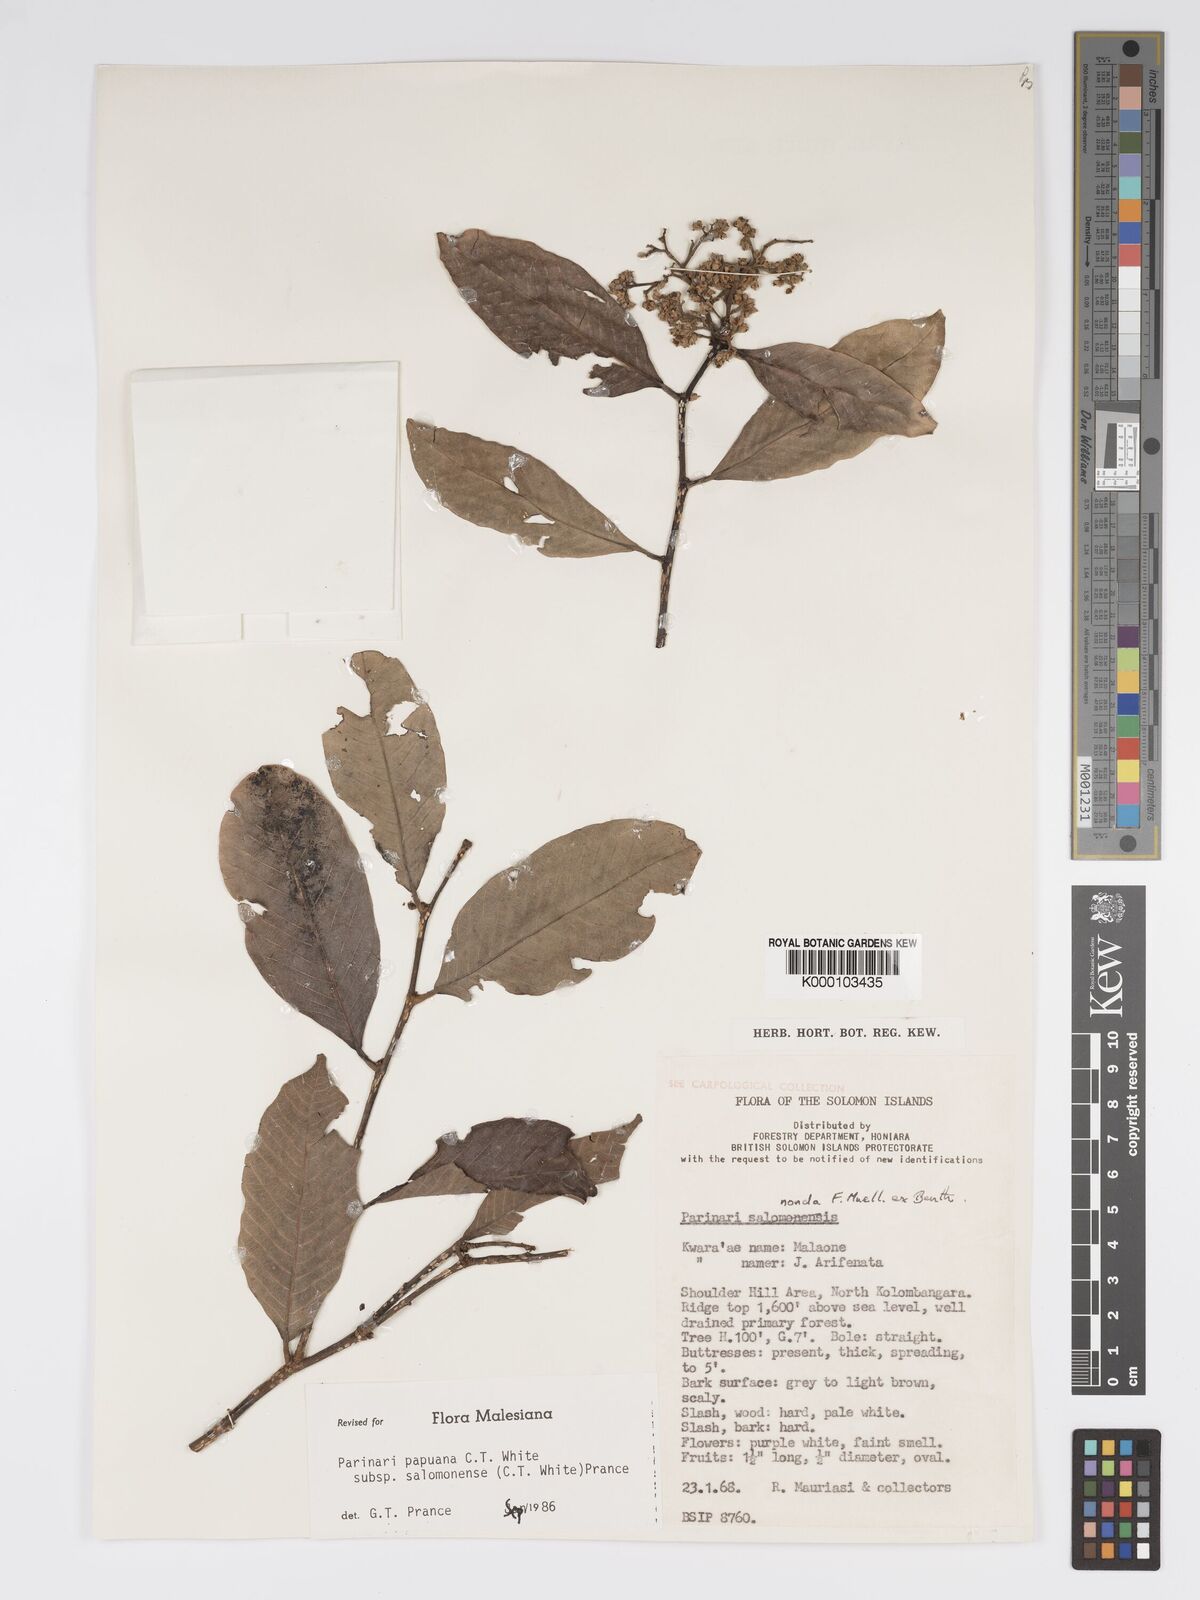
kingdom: Plantae
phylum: Tracheophyta
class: Magnoliopsida
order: Malpighiales
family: Chrysobalanaceae
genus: Parinari
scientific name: Parinari papuana
